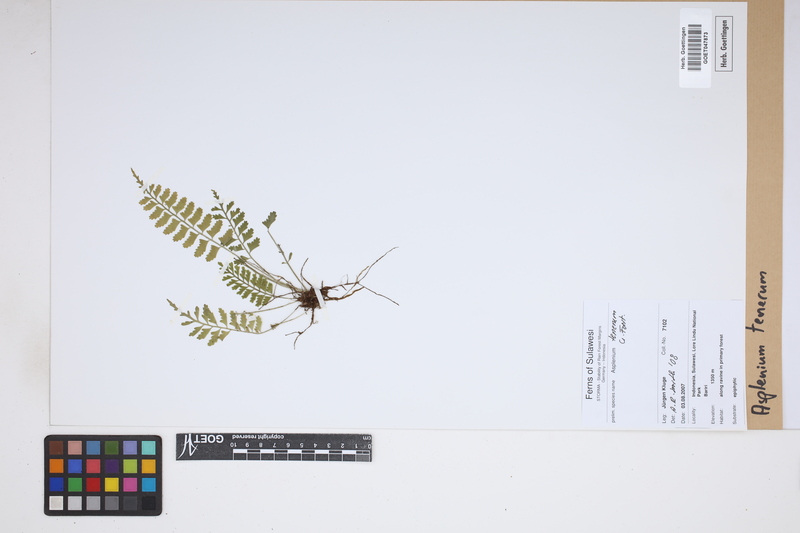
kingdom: Plantae
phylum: Tracheophyta
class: Polypodiopsida
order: Polypodiales
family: Aspleniaceae
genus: Asplenium
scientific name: Asplenium tenerum
